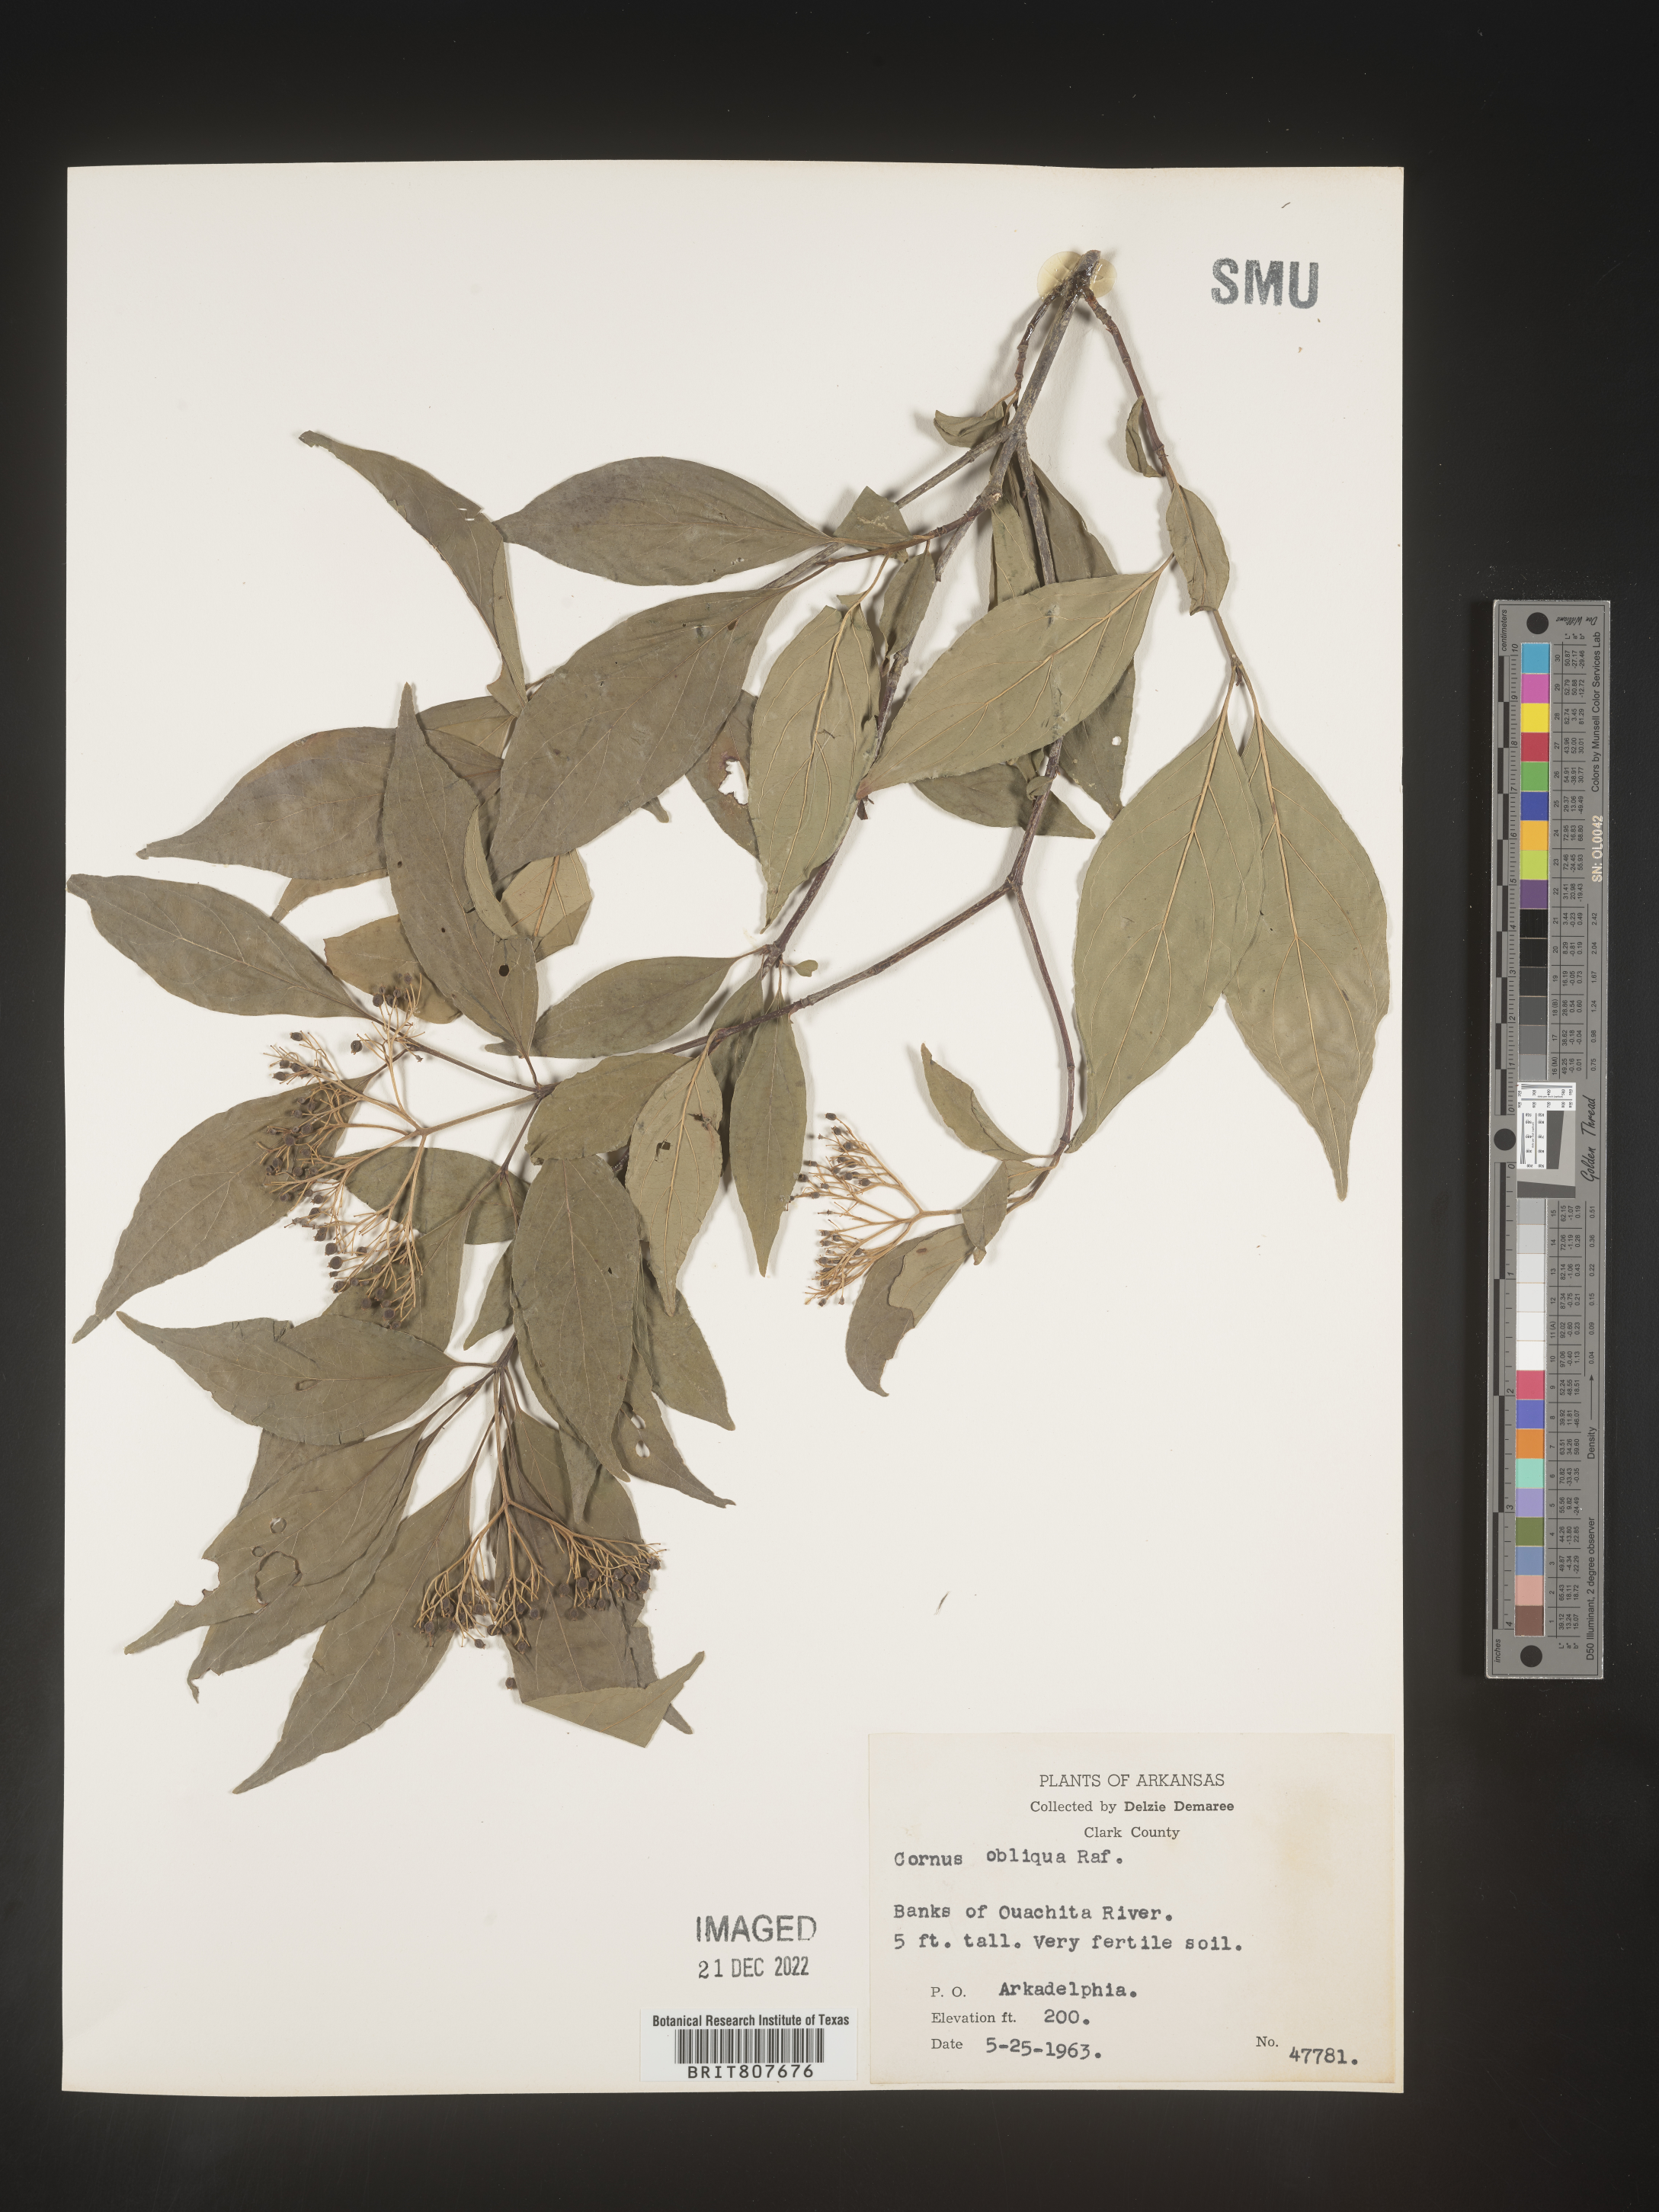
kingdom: Plantae
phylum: Tracheophyta
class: Magnoliopsida
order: Cornales
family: Cornaceae
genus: Cornus
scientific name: Cornus obliqua
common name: Pale dogwood
